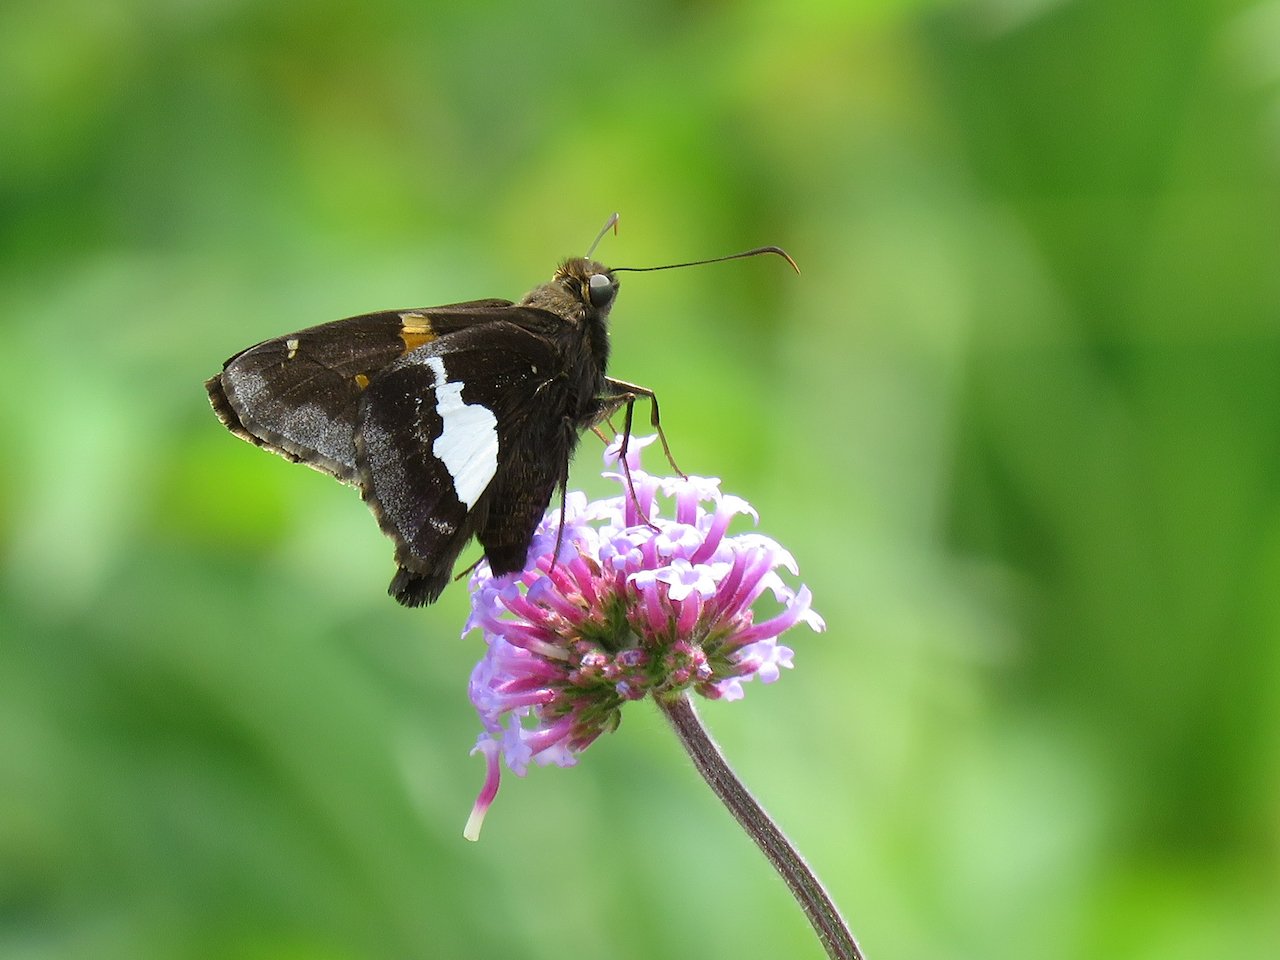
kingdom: Animalia
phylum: Arthropoda
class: Insecta
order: Lepidoptera
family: Hesperiidae
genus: Epargyreus
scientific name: Epargyreus clarus
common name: Silver-spotted Skipper
